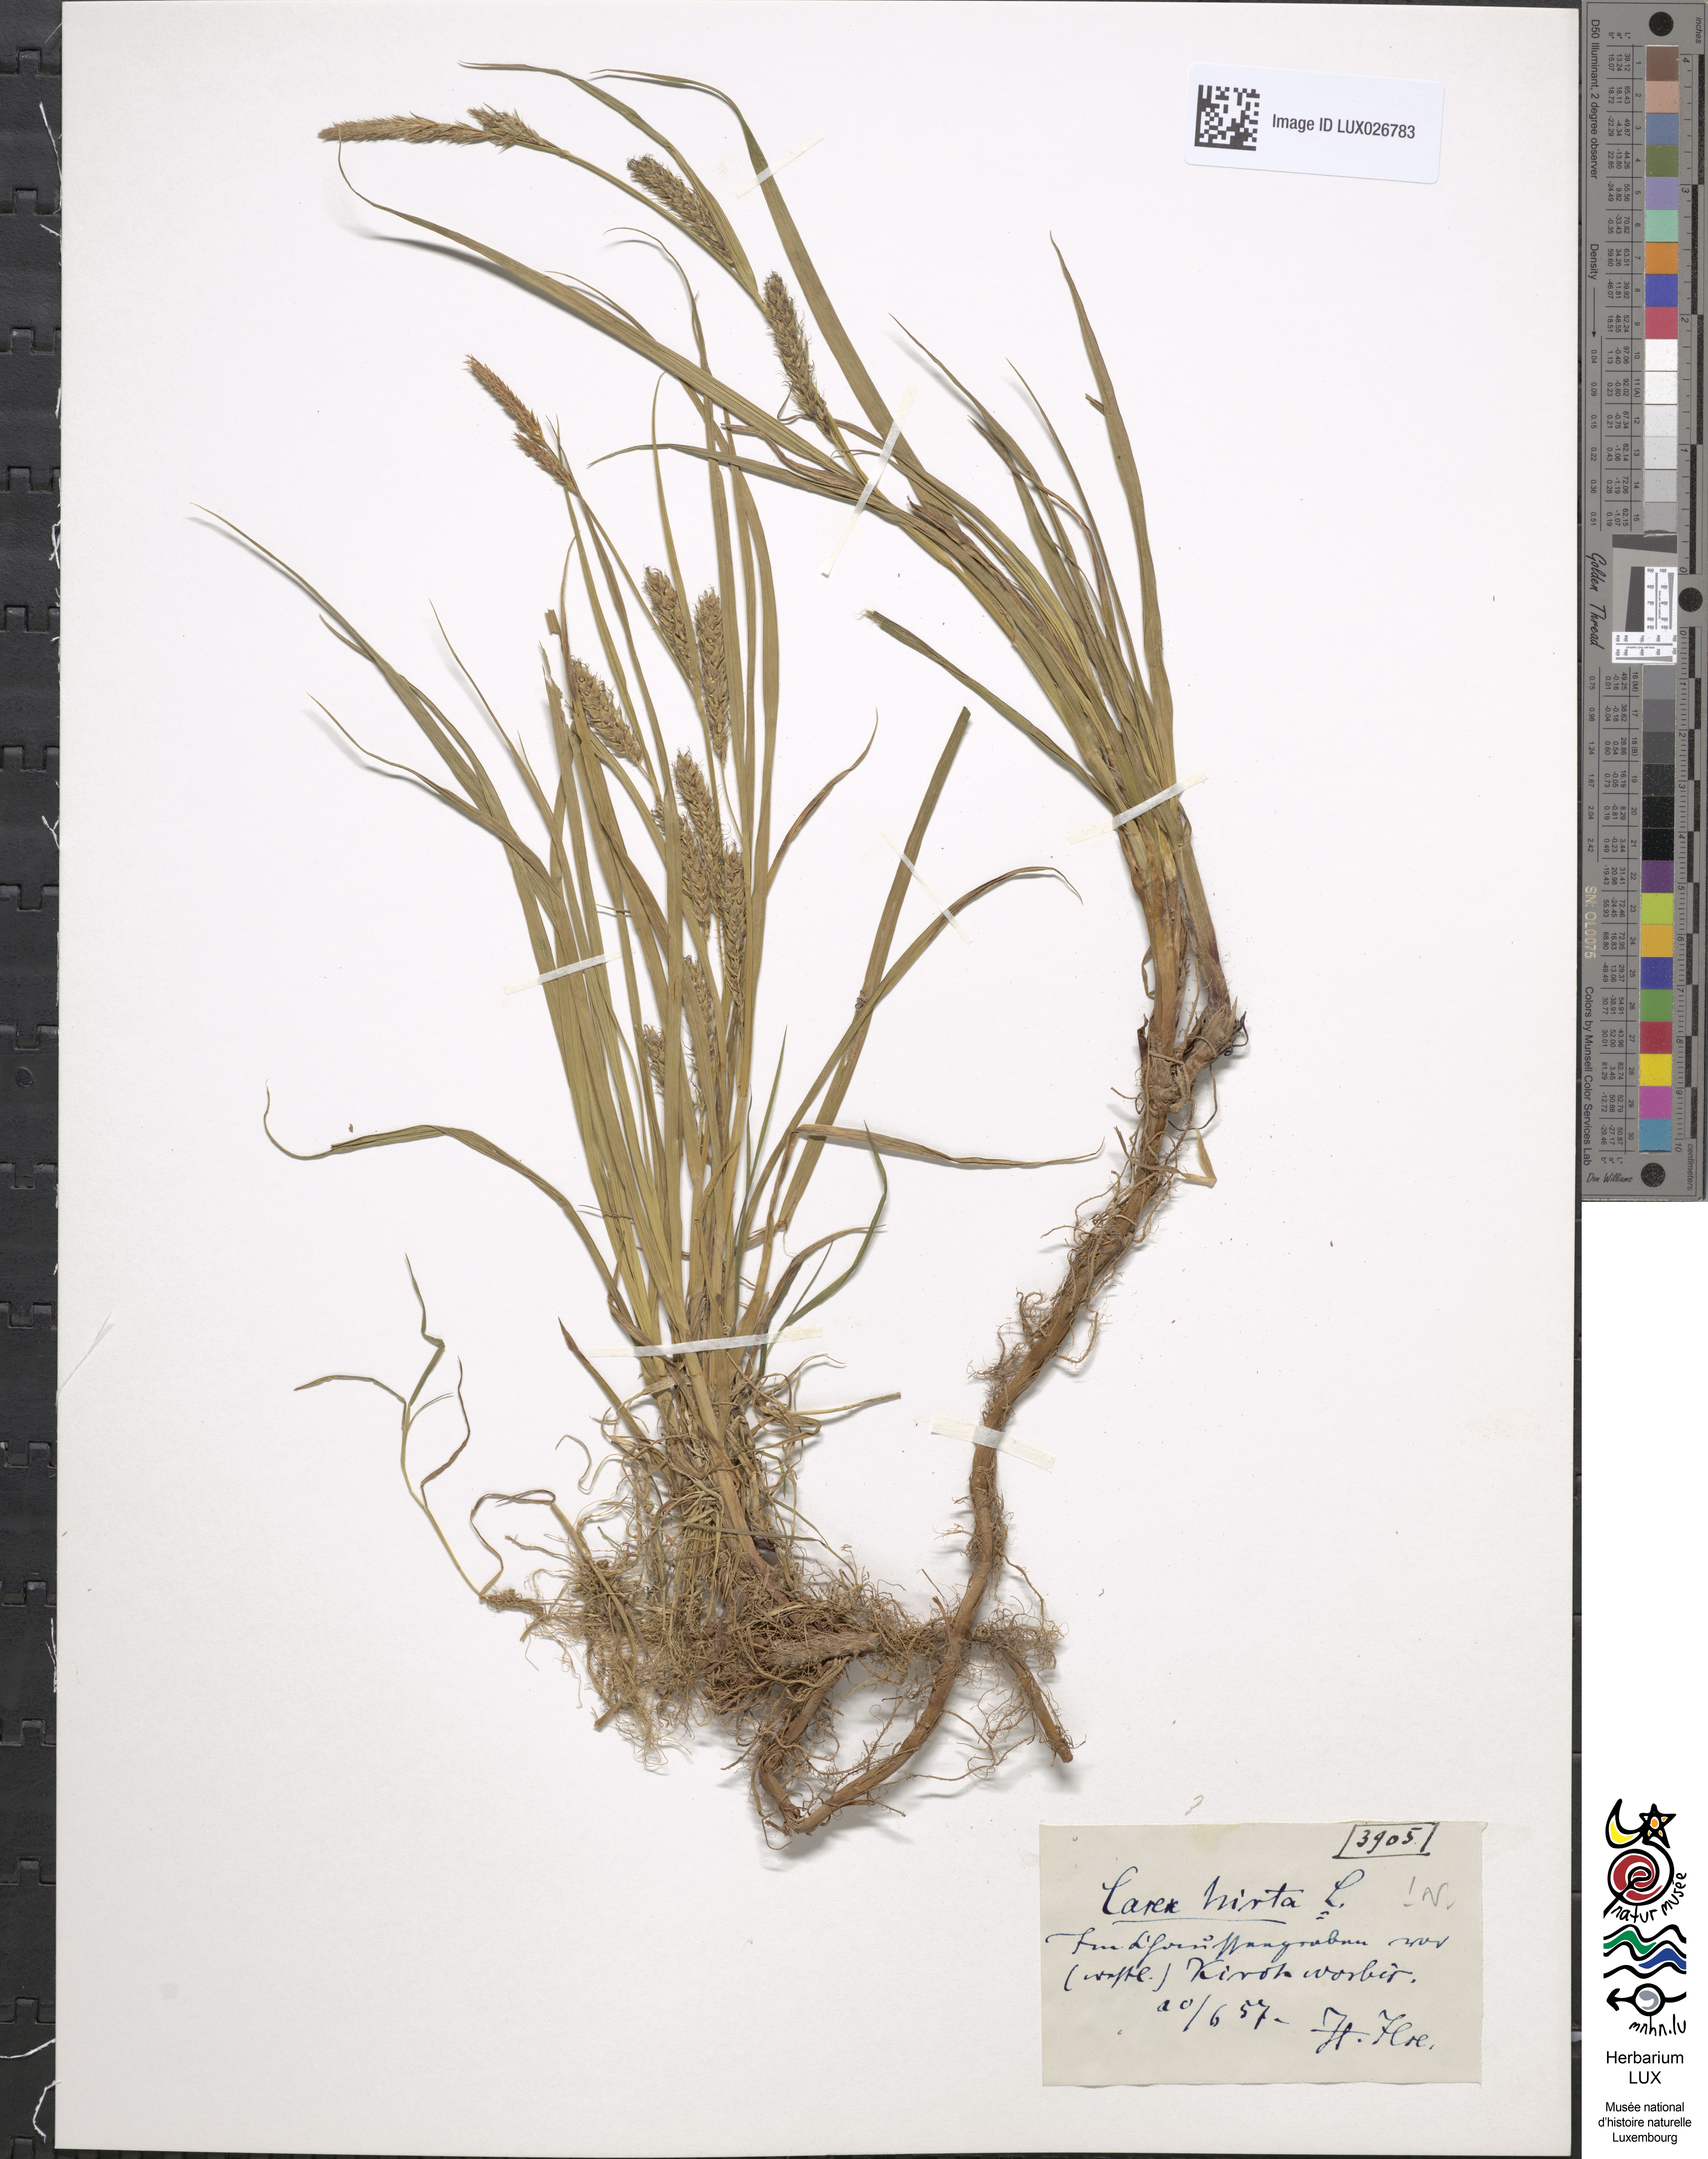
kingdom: Plantae
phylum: Tracheophyta
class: Liliopsida
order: Poales
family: Cyperaceae
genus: Carex
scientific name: Carex hirta
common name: Hairy sedge
